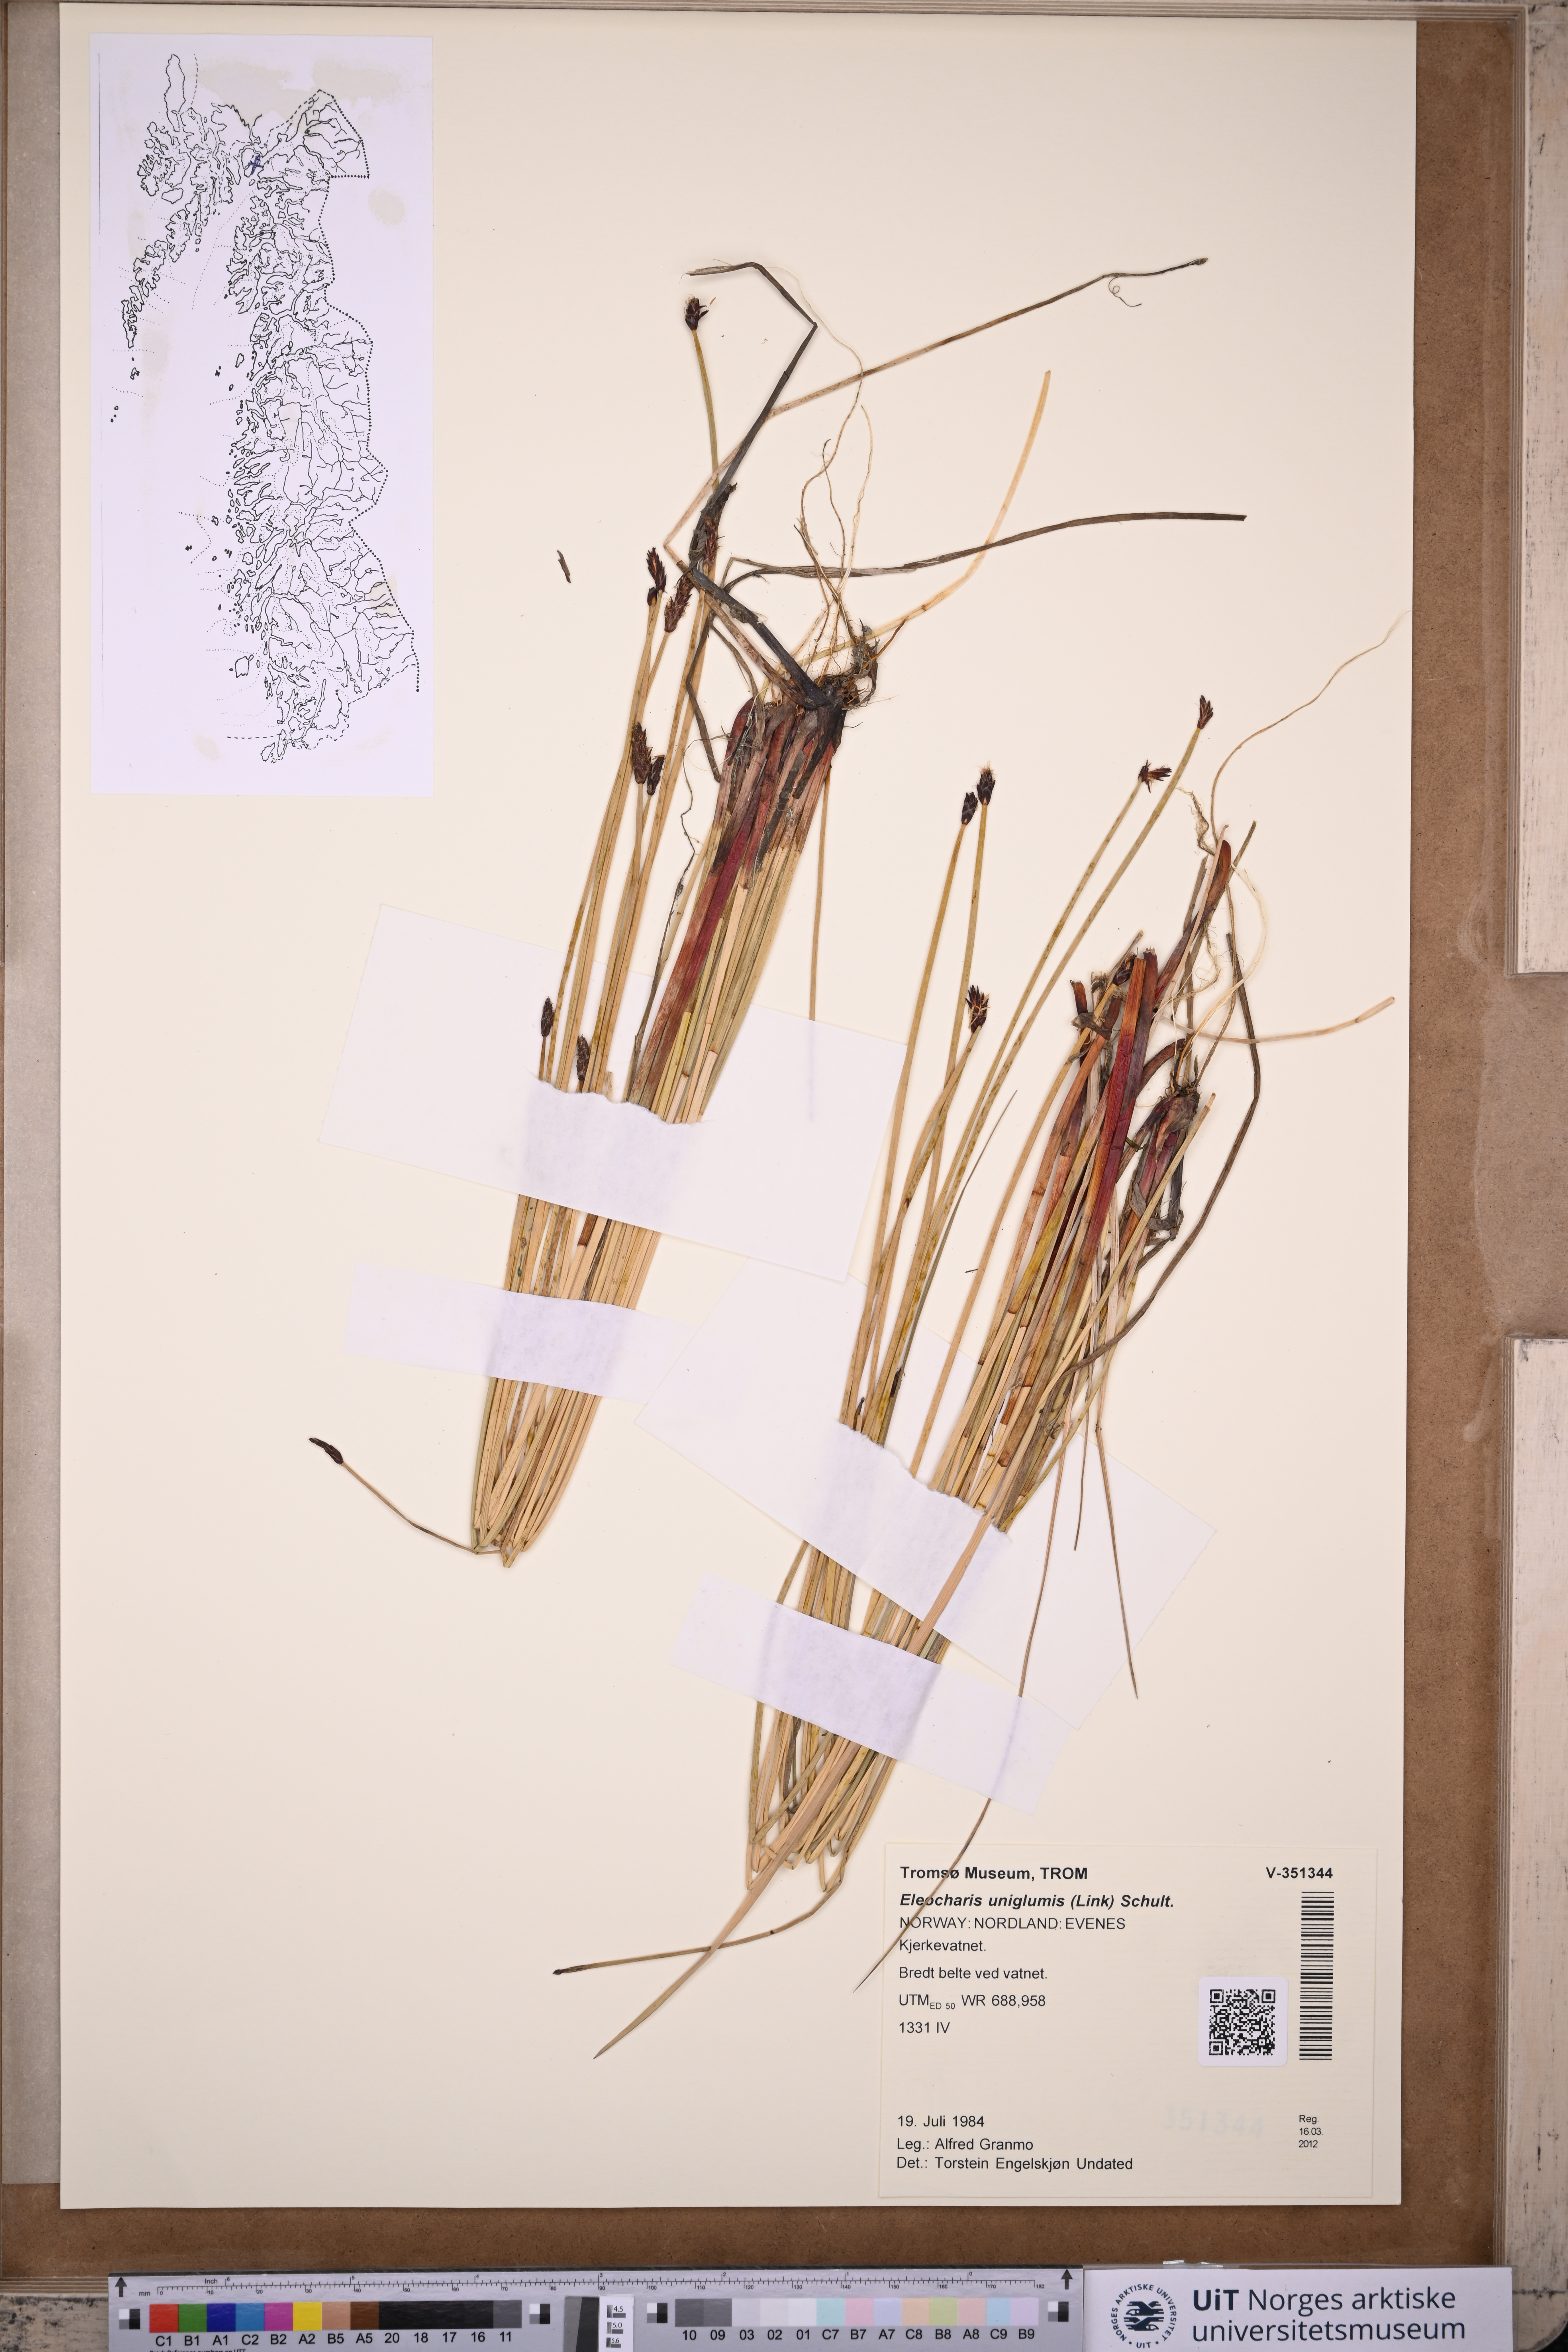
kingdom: Plantae
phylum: Tracheophyta
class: Liliopsida
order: Poales
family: Cyperaceae
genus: Eleocharis
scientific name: Eleocharis uniglumis
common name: Slender spike-rush
